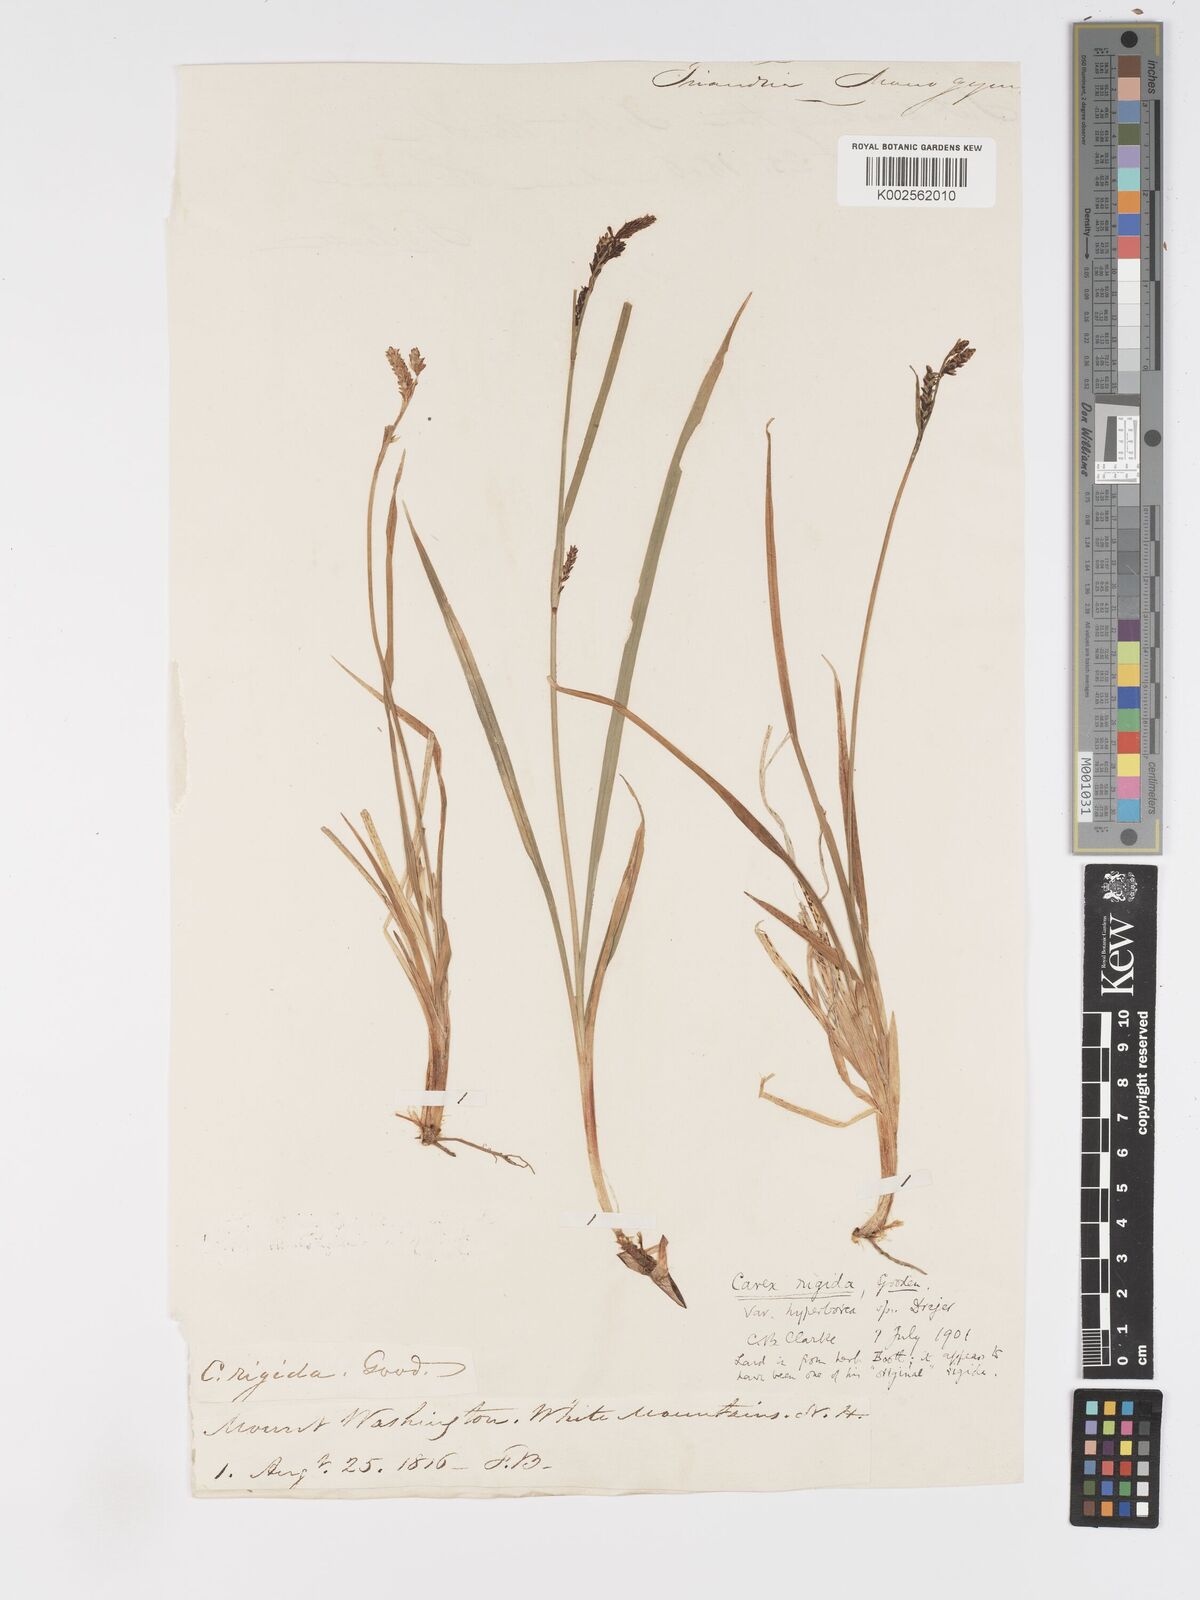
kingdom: Plantae
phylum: Tracheophyta
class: Liliopsida
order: Poales
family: Cyperaceae
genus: Carex
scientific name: Carex bigelowii
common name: Stiff sedge
